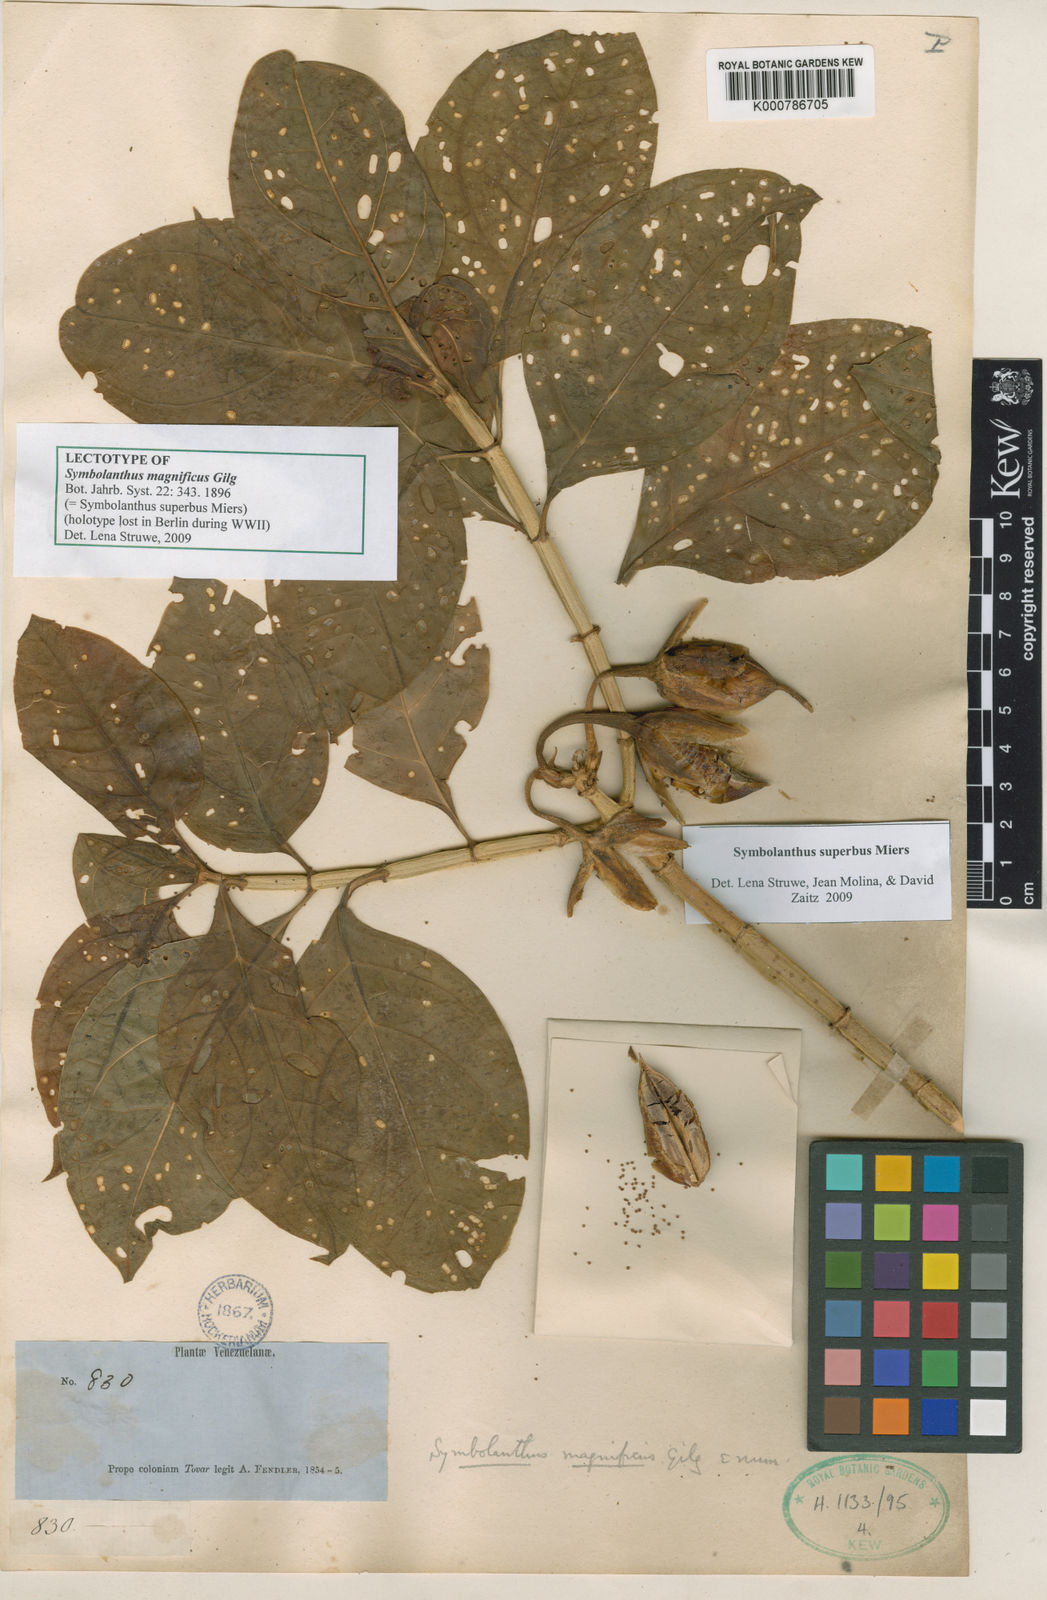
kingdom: Plantae
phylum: Tracheophyta
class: Magnoliopsida
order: Gentianales
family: Gentianaceae
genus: Symbolanthus
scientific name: Symbolanthus superbus
